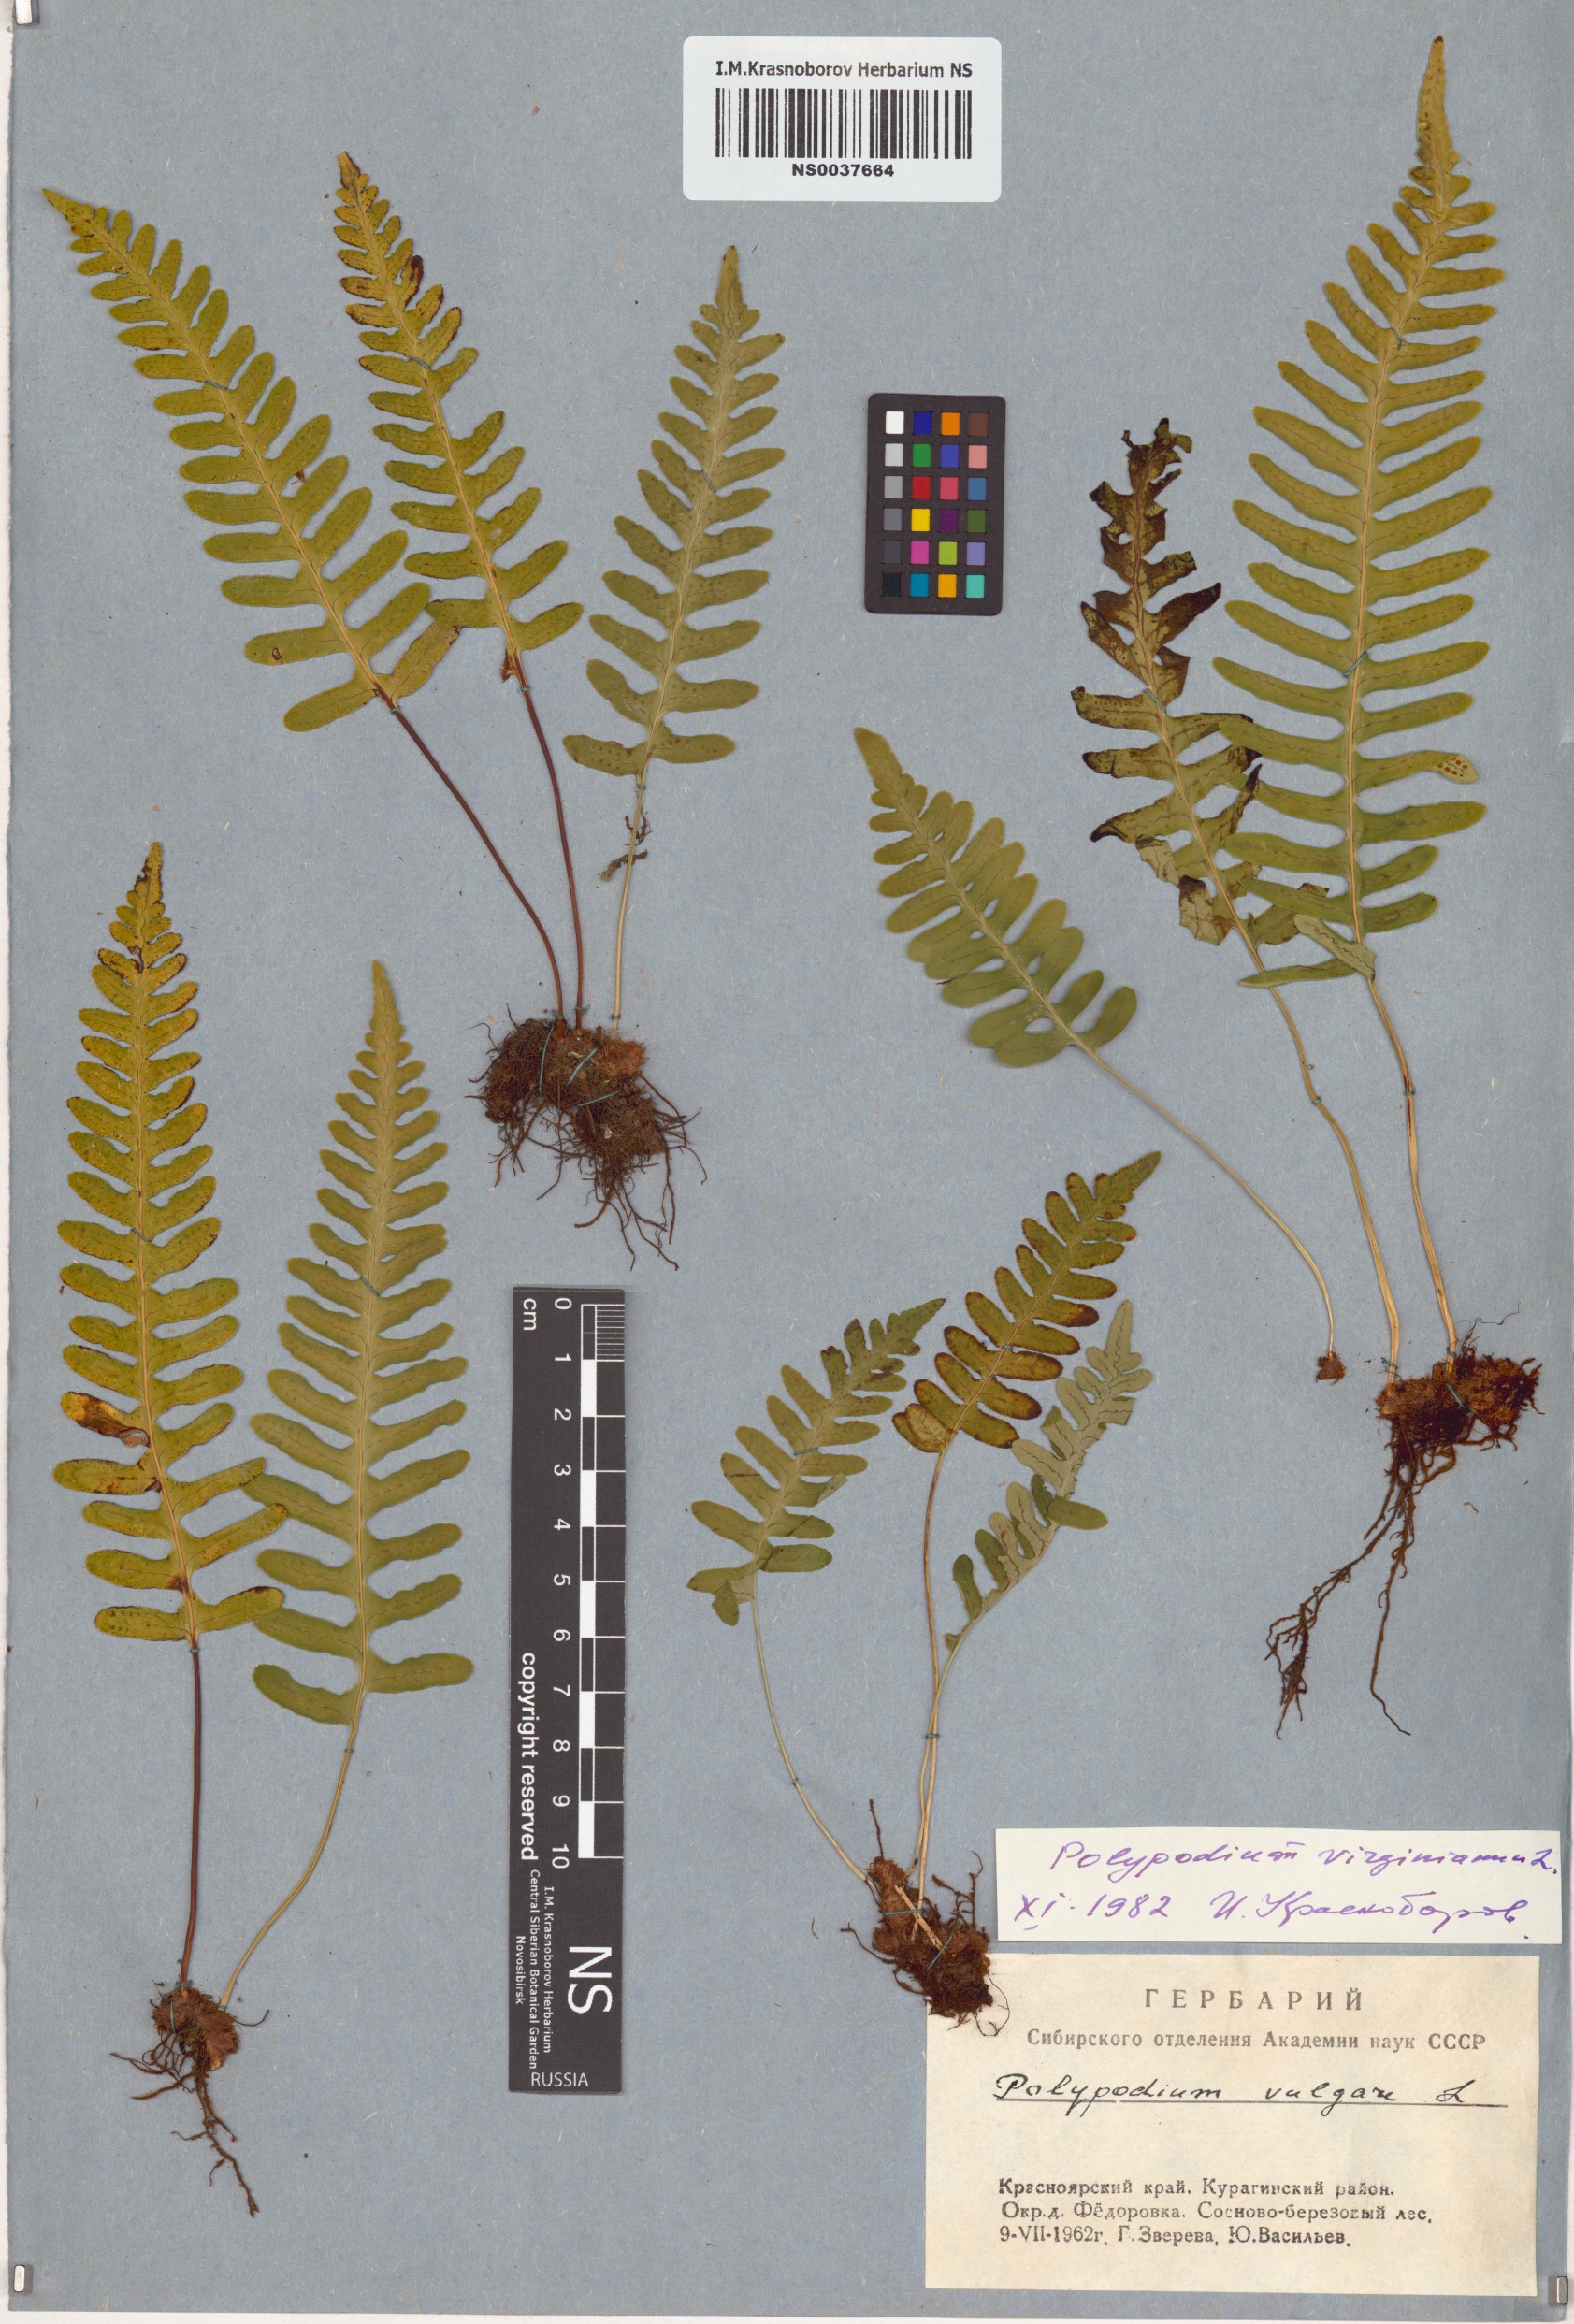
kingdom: Plantae
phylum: Tracheophyta
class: Polypodiopsida
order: Polypodiales
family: Polypodiaceae
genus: Polypodium
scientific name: Polypodium virginianum
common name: American wall fern
